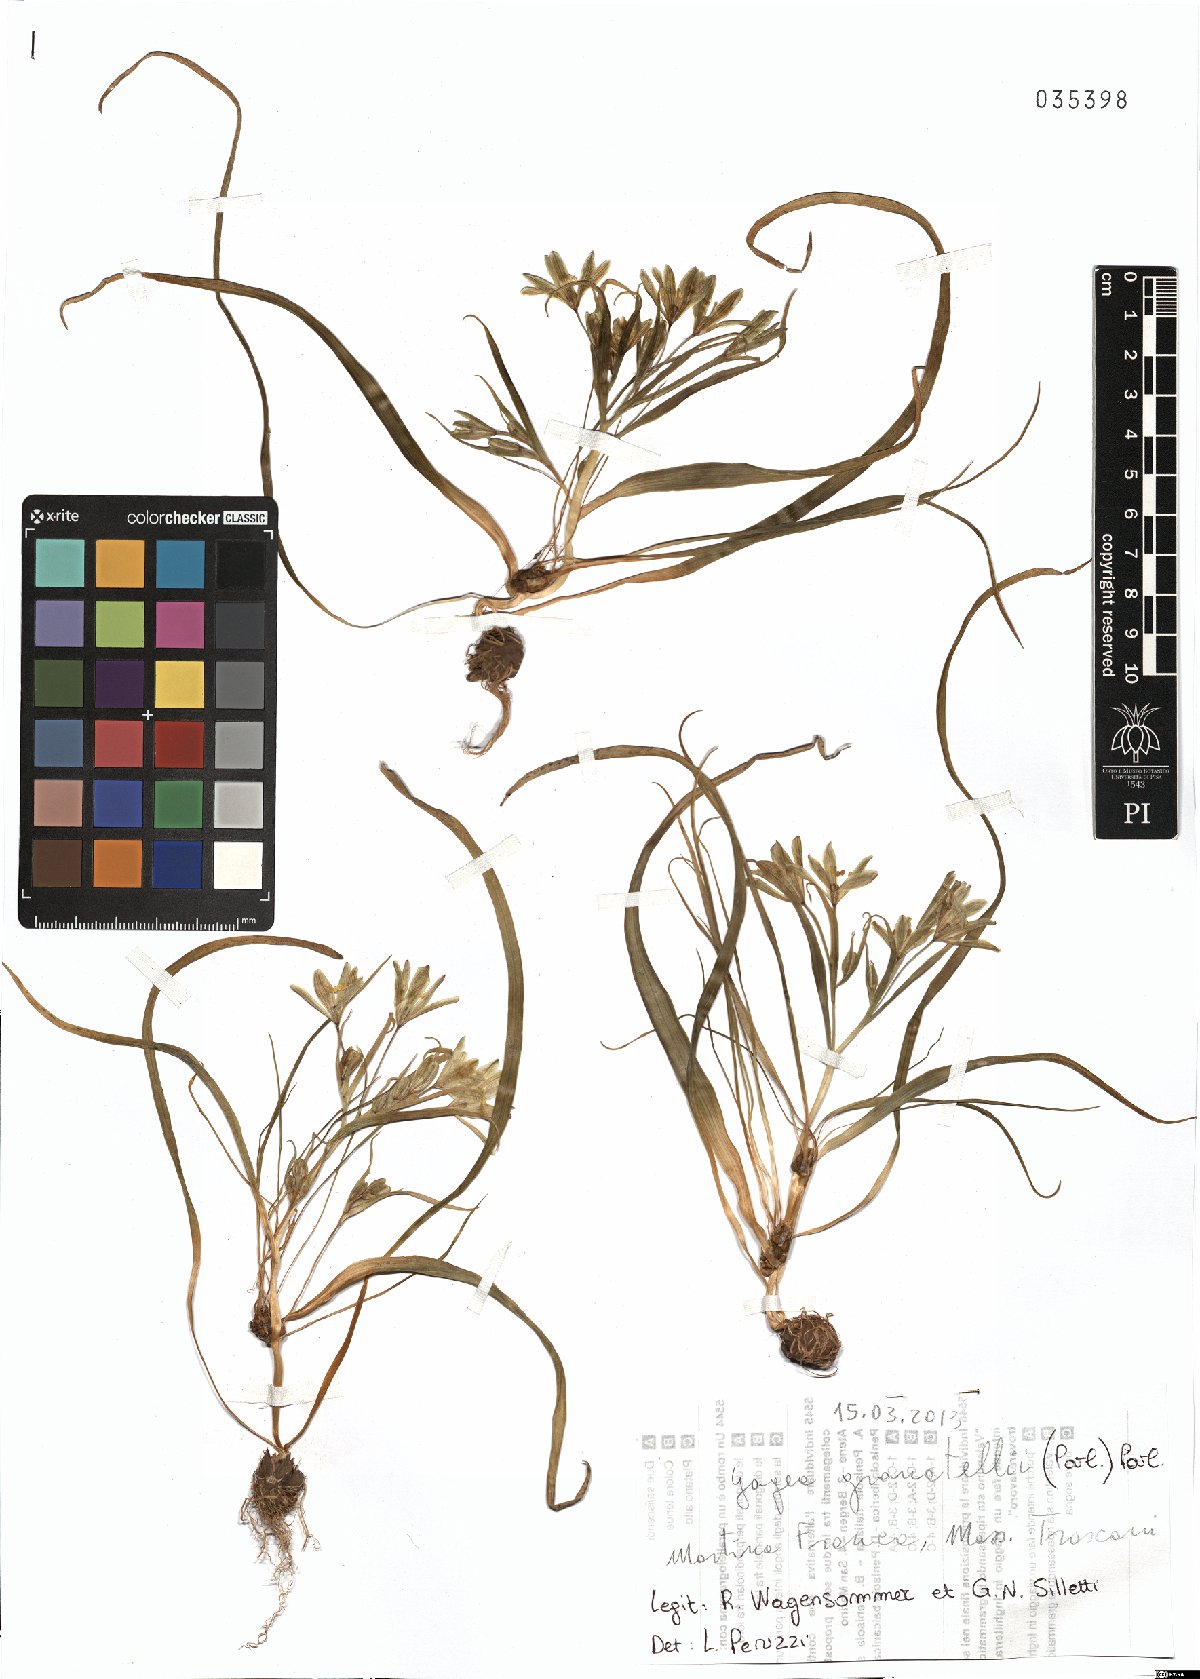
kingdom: Plantae
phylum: Tracheophyta
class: Liliopsida
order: Liliales
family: Liliaceae
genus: Gagea
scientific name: Gagea granatellii
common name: Granatelli’s gagea
